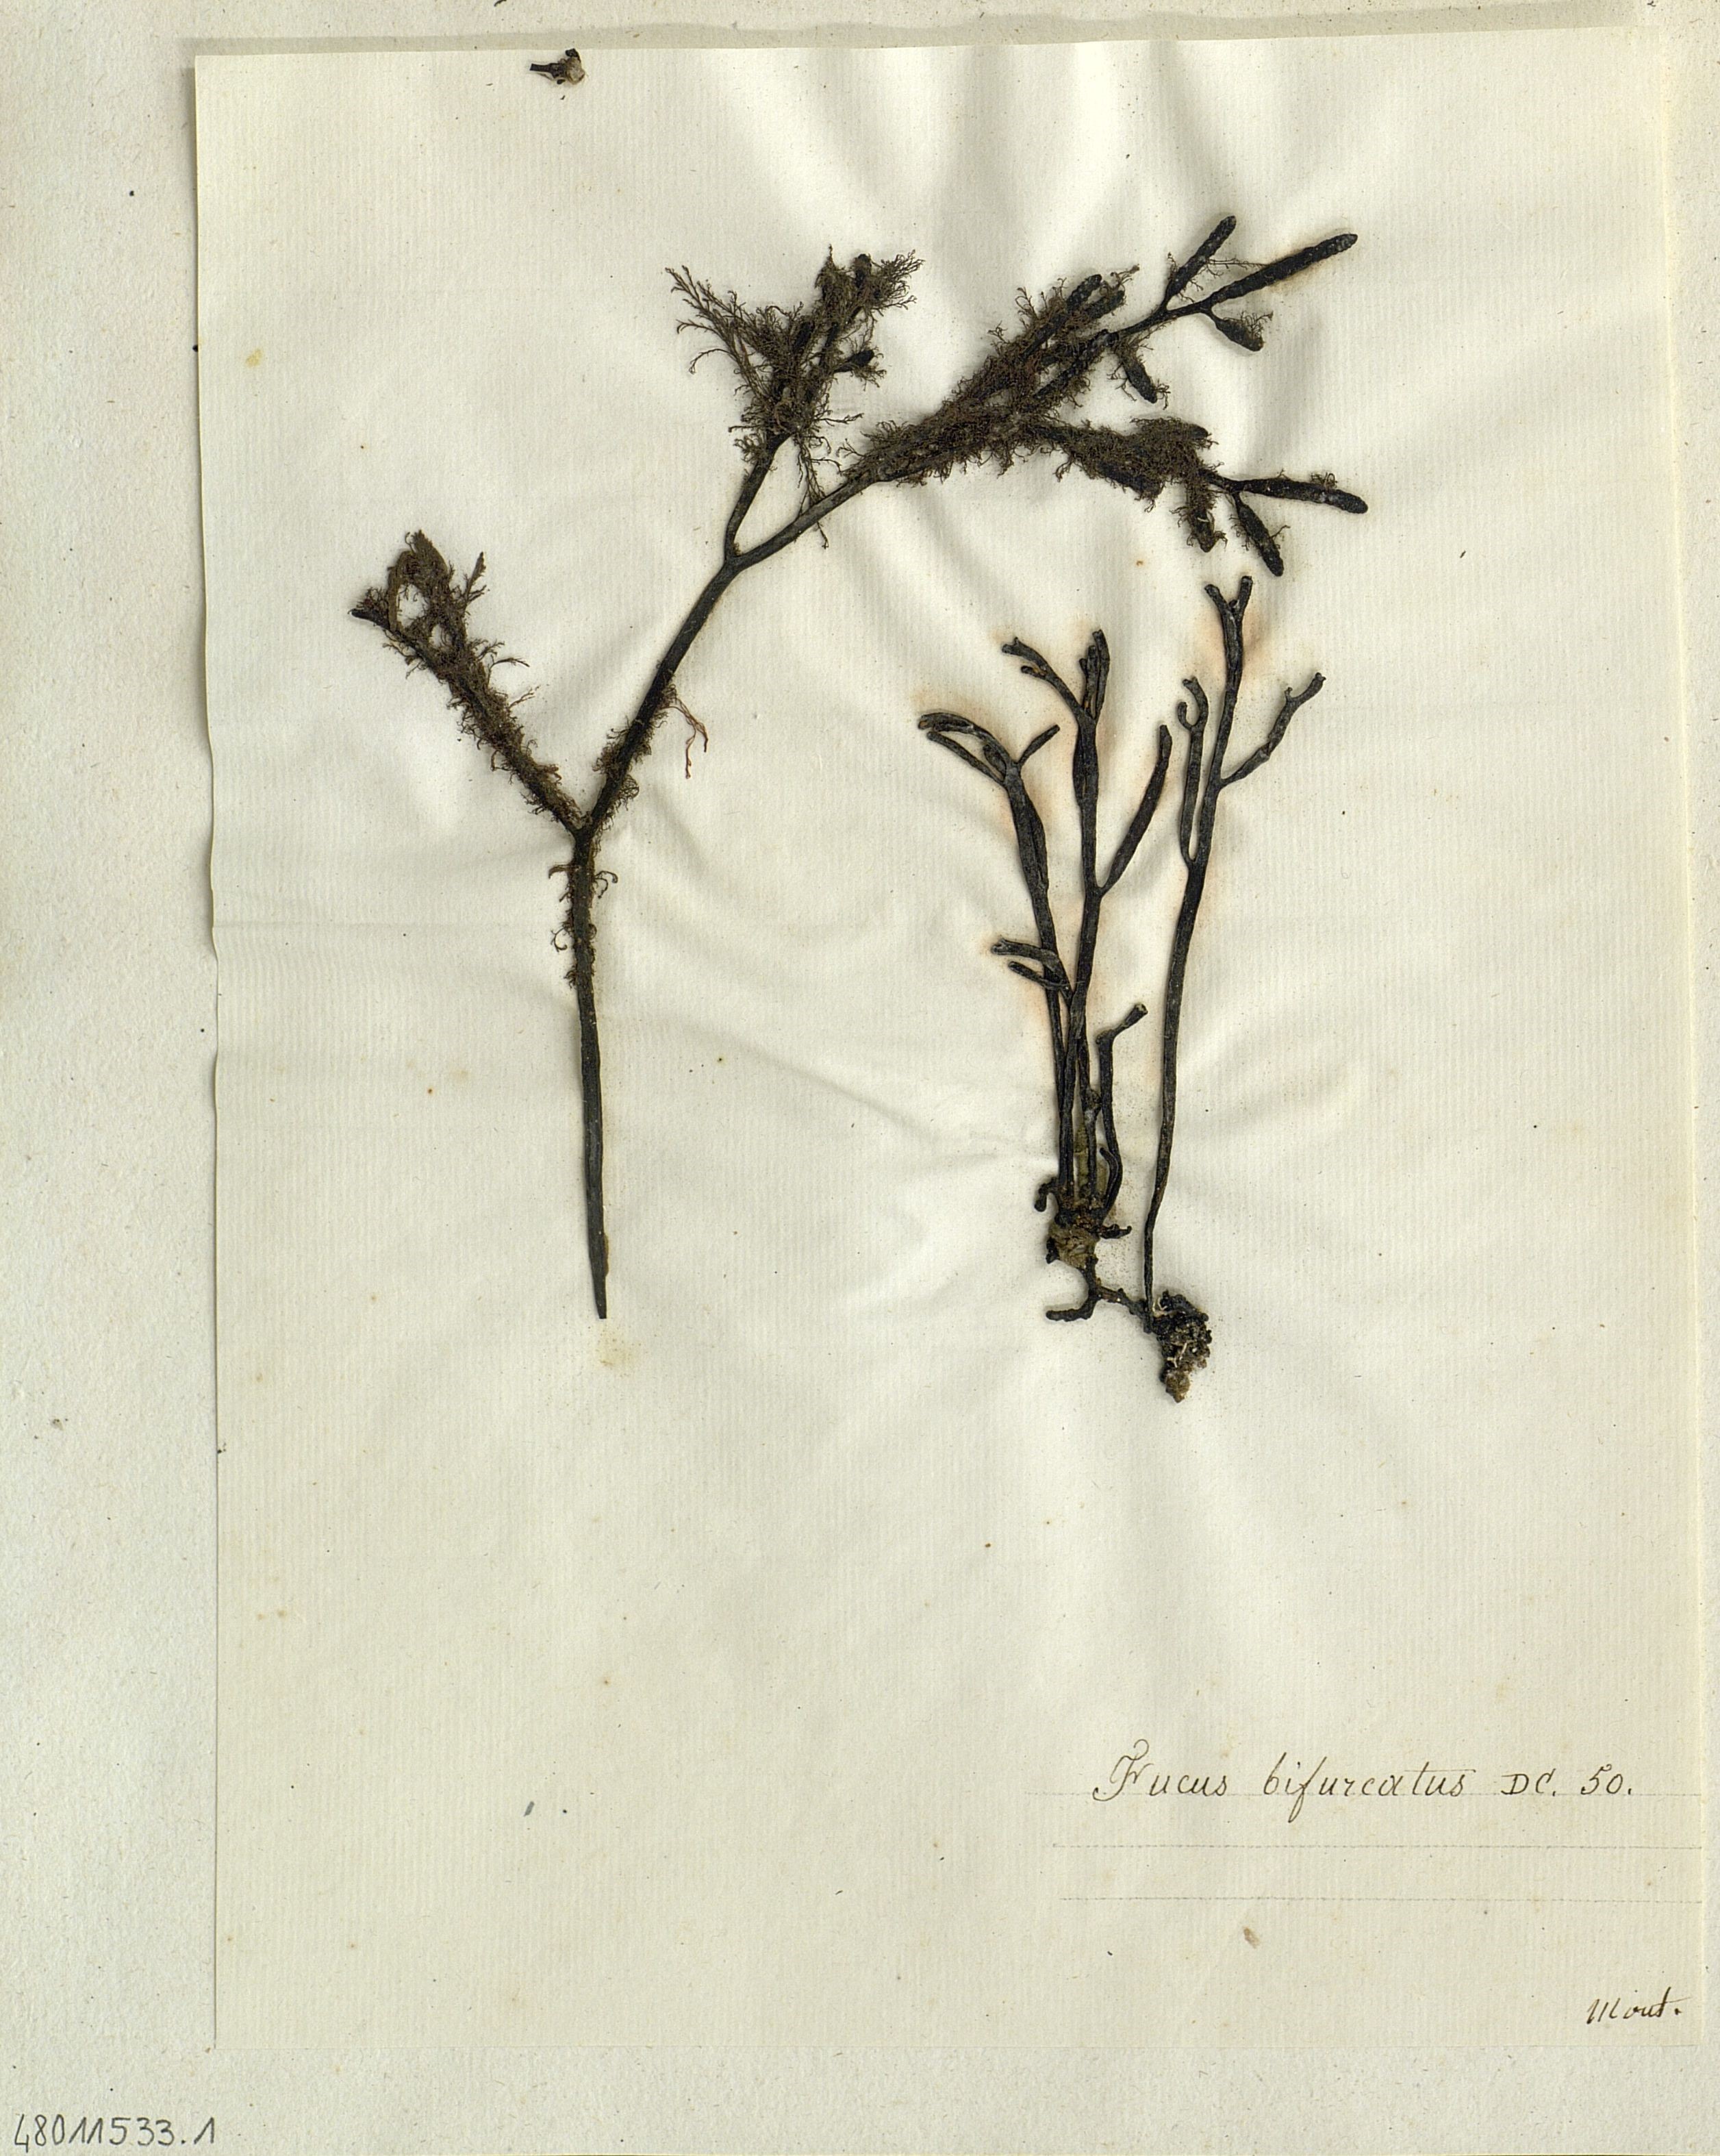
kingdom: Chromista
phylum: Ochrophyta
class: Phaeophyceae
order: Fucales
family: Sargassaceae
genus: Bifurcaria
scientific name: Bifurcaria bifurcata
